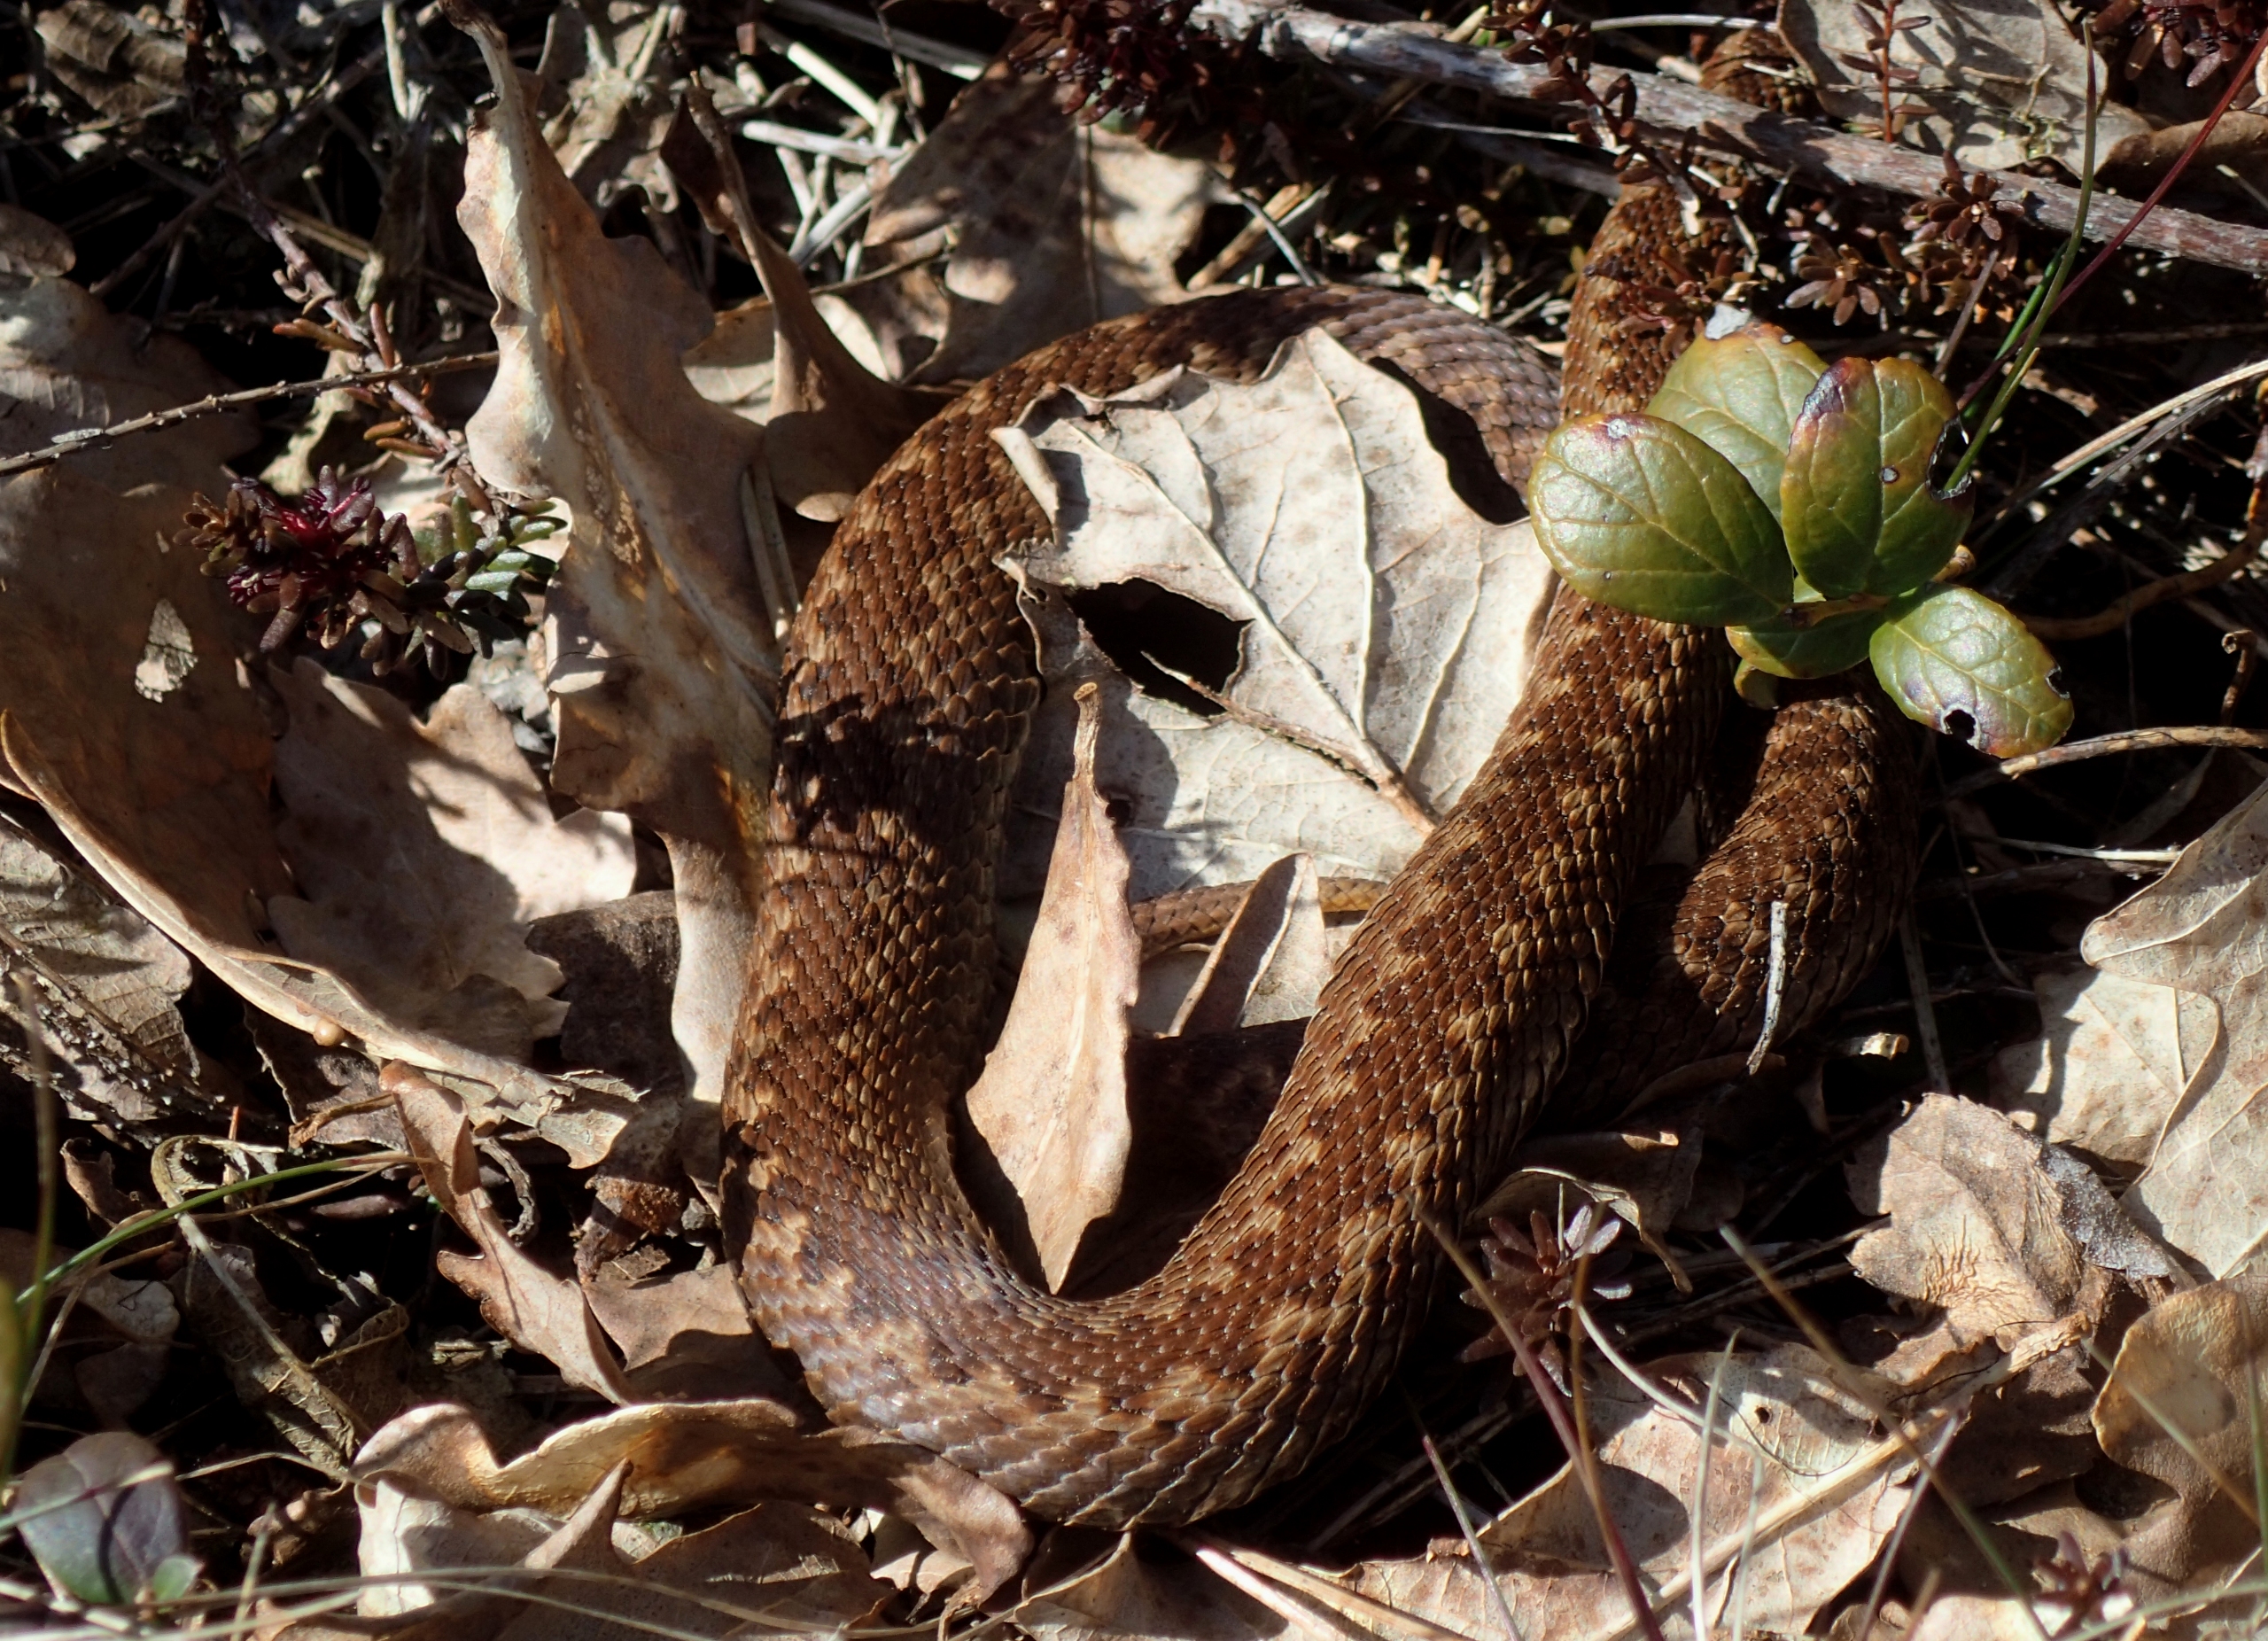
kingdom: Animalia
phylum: Chordata
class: Squamata
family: Viperidae
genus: Vipera
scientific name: Vipera berus
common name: Hugorm
